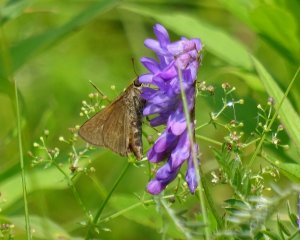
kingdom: Animalia
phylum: Arthropoda
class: Insecta
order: Lepidoptera
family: Hesperiidae
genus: Euphyes
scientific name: Euphyes vestris
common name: Dun Skipper
